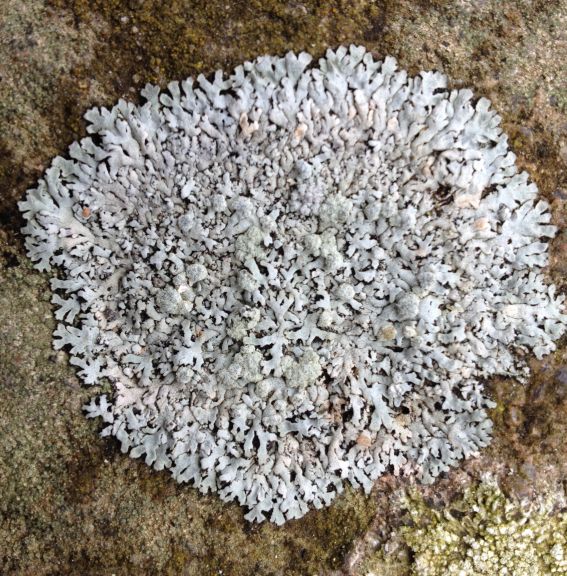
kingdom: Fungi
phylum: Ascomycota
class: Lecanoromycetes
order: Caliciales
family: Physciaceae
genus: Physcia
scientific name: Physcia caesia
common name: blågrå rosetlav
